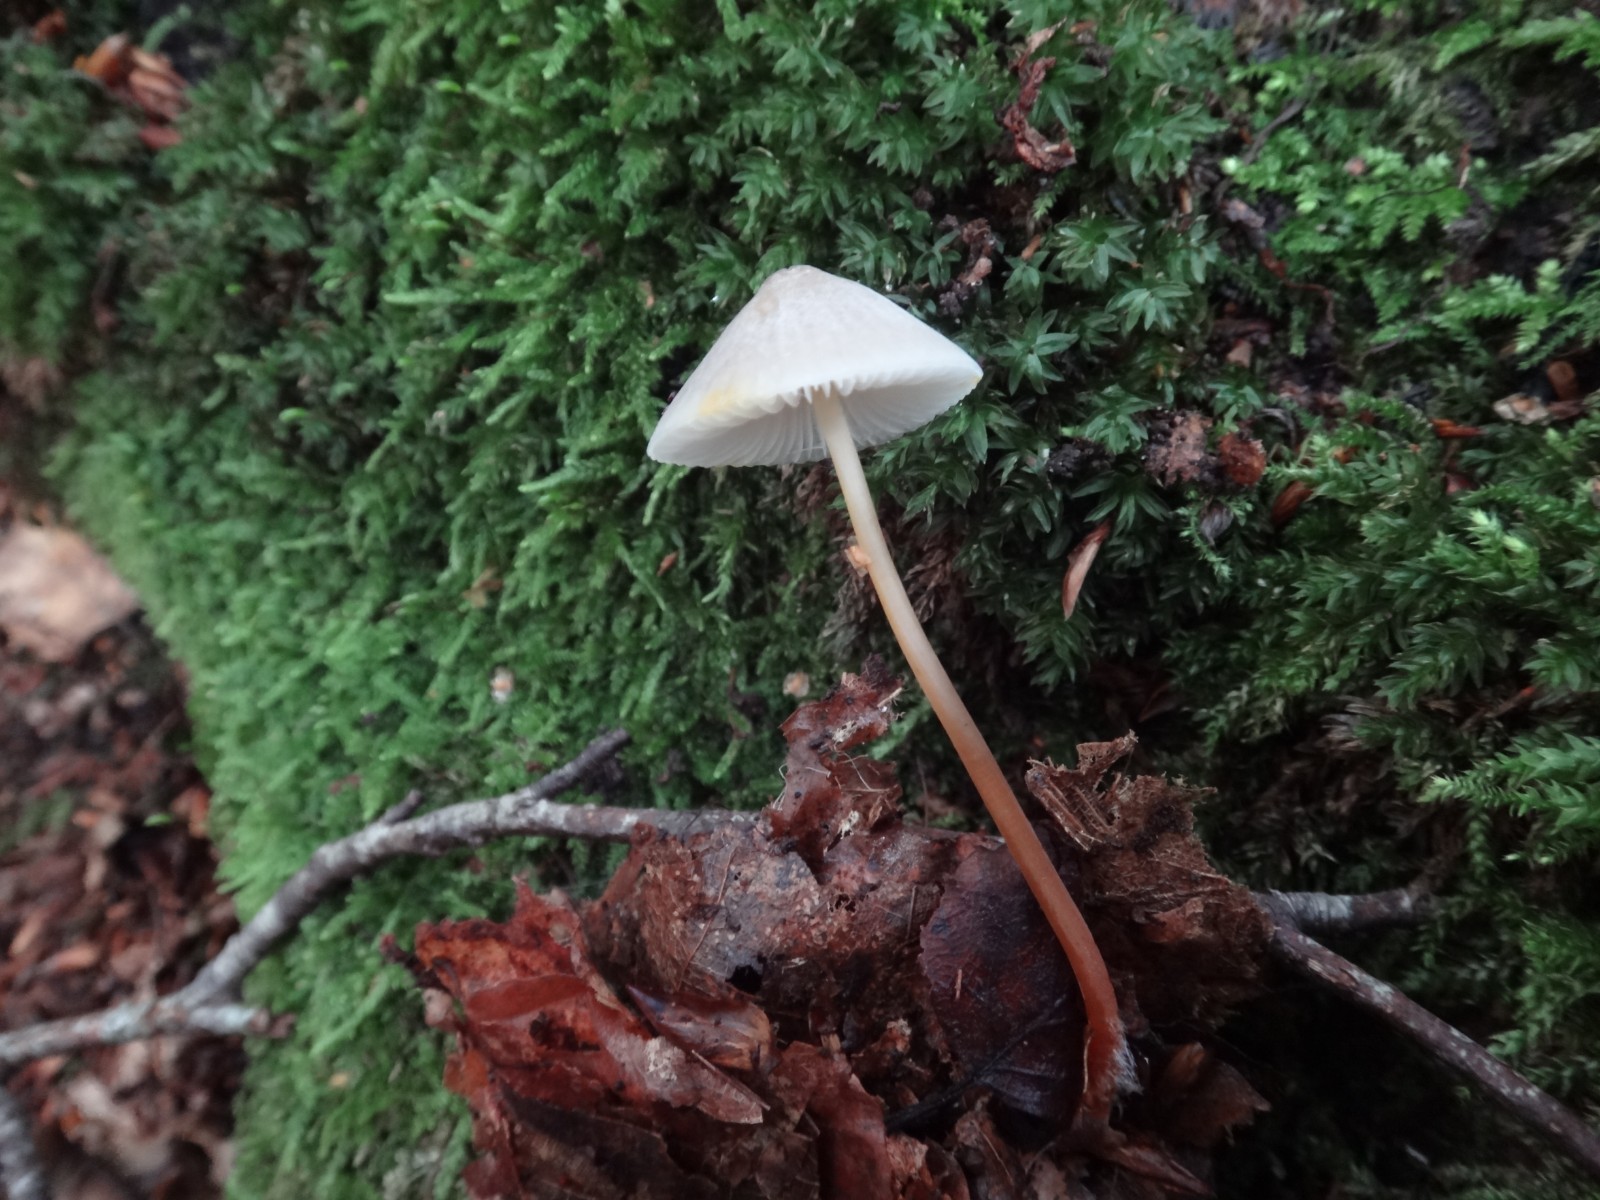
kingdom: Fungi
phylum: Basidiomycota
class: Agaricomycetes
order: Agaricales
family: Mycenaceae
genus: Mycena
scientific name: Mycena crocata
